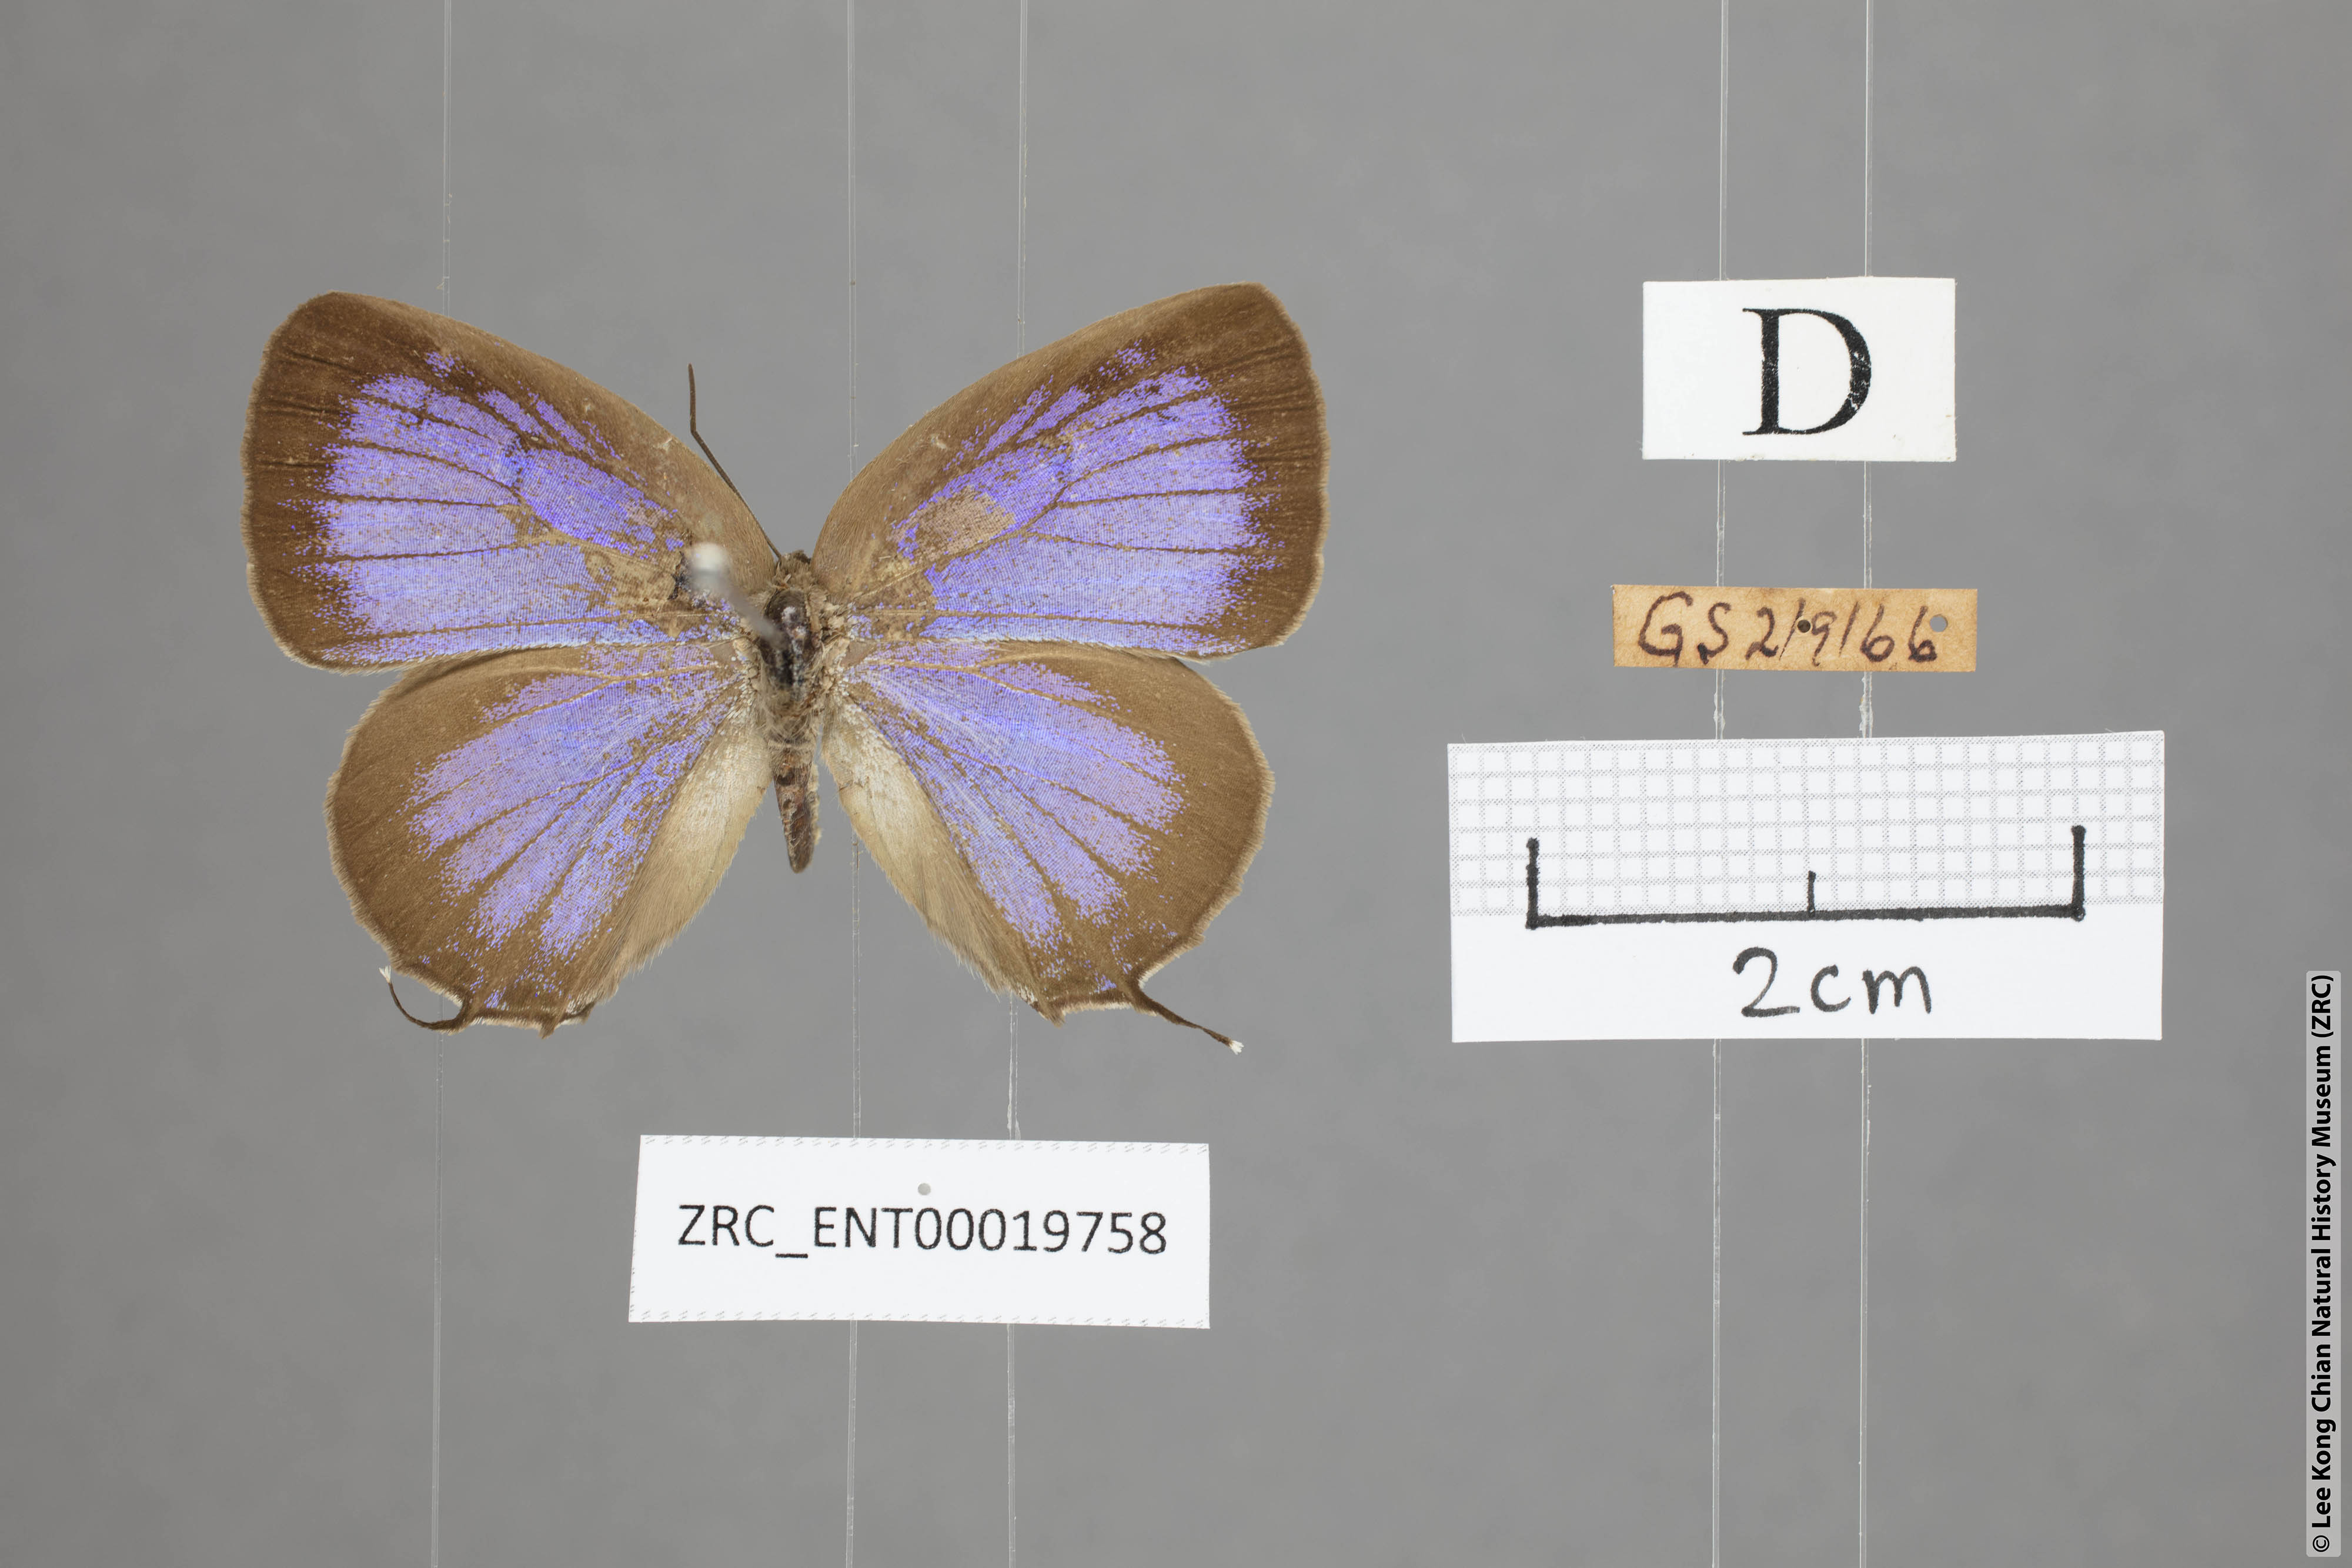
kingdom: Animalia
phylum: Arthropoda
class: Insecta
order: Lepidoptera
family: Lycaenidae
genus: Arhopala
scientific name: Arhopala opalina
